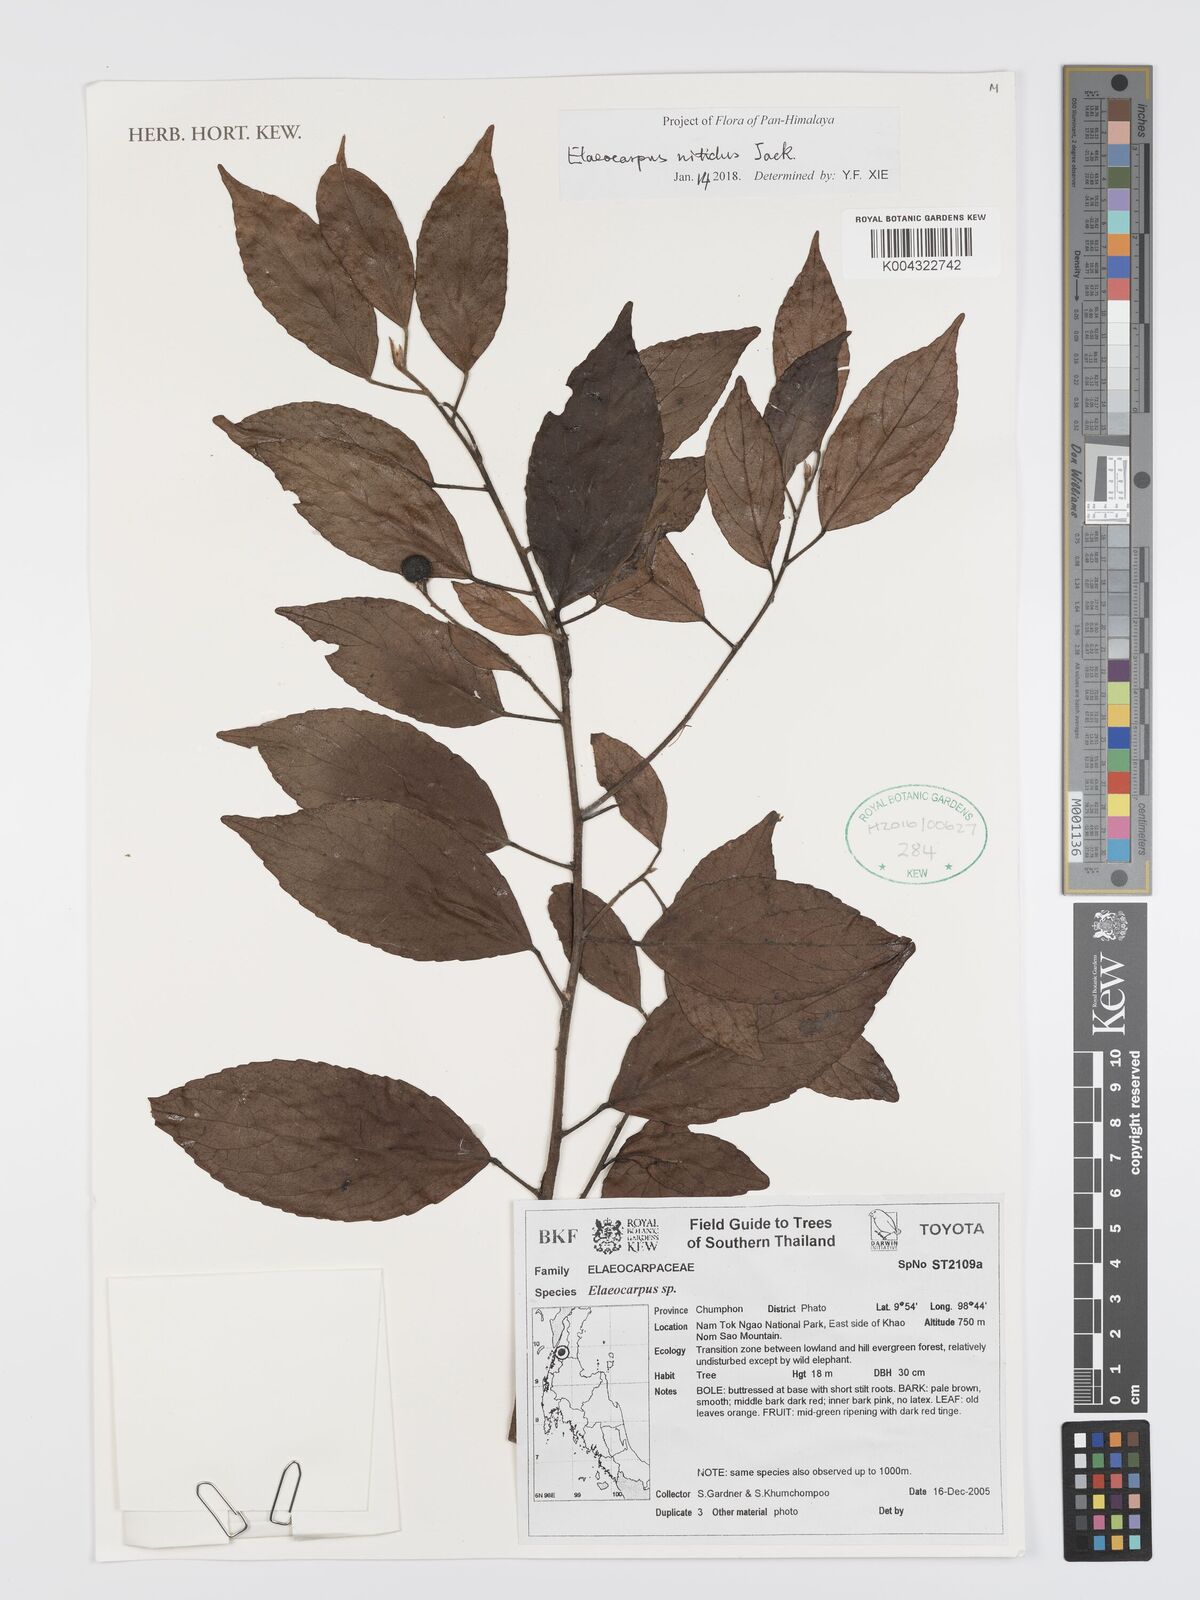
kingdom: Plantae
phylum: Tracheophyta
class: Magnoliopsida
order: Oxalidales
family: Elaeocarpaceae
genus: Elaeocarpus
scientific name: Elaeocarpus nitidus
